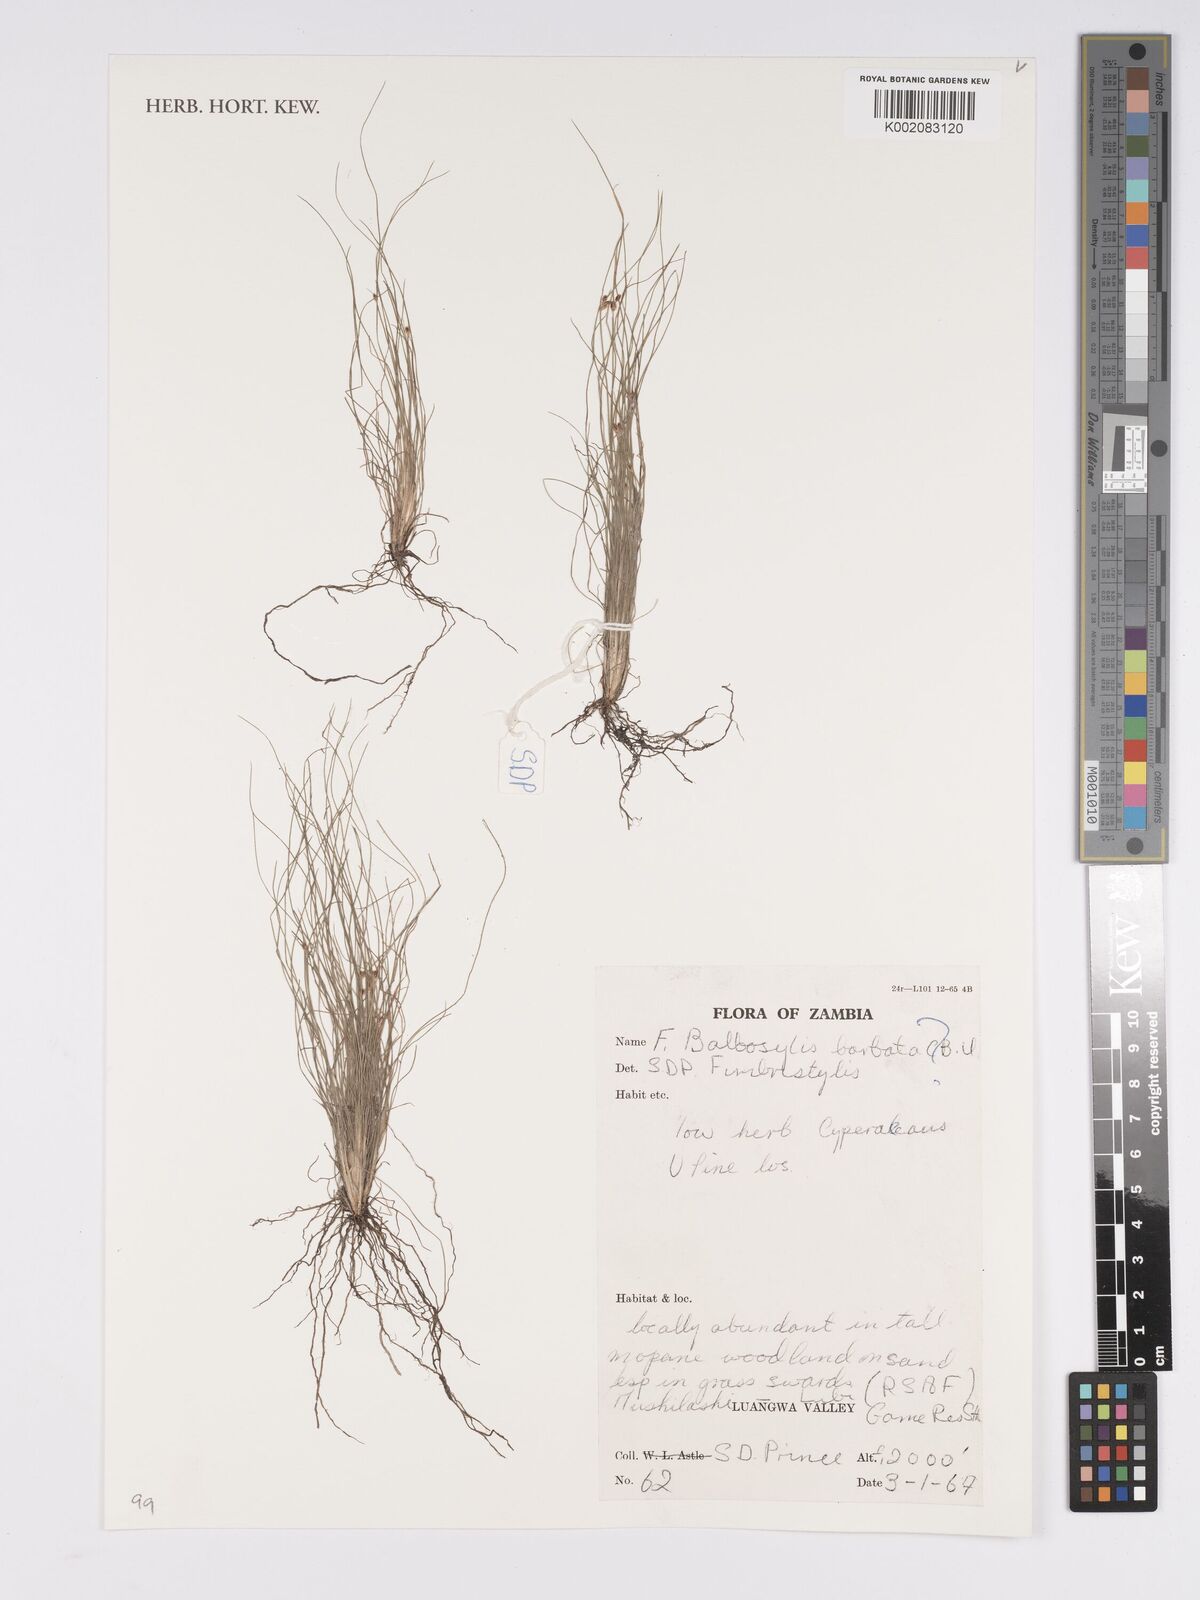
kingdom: Plantae
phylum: Tracheophyta
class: Liliopsida
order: Poales
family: Cyperaceae
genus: Bulbostylis
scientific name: Bulbostylis barbata
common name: Watergrass
